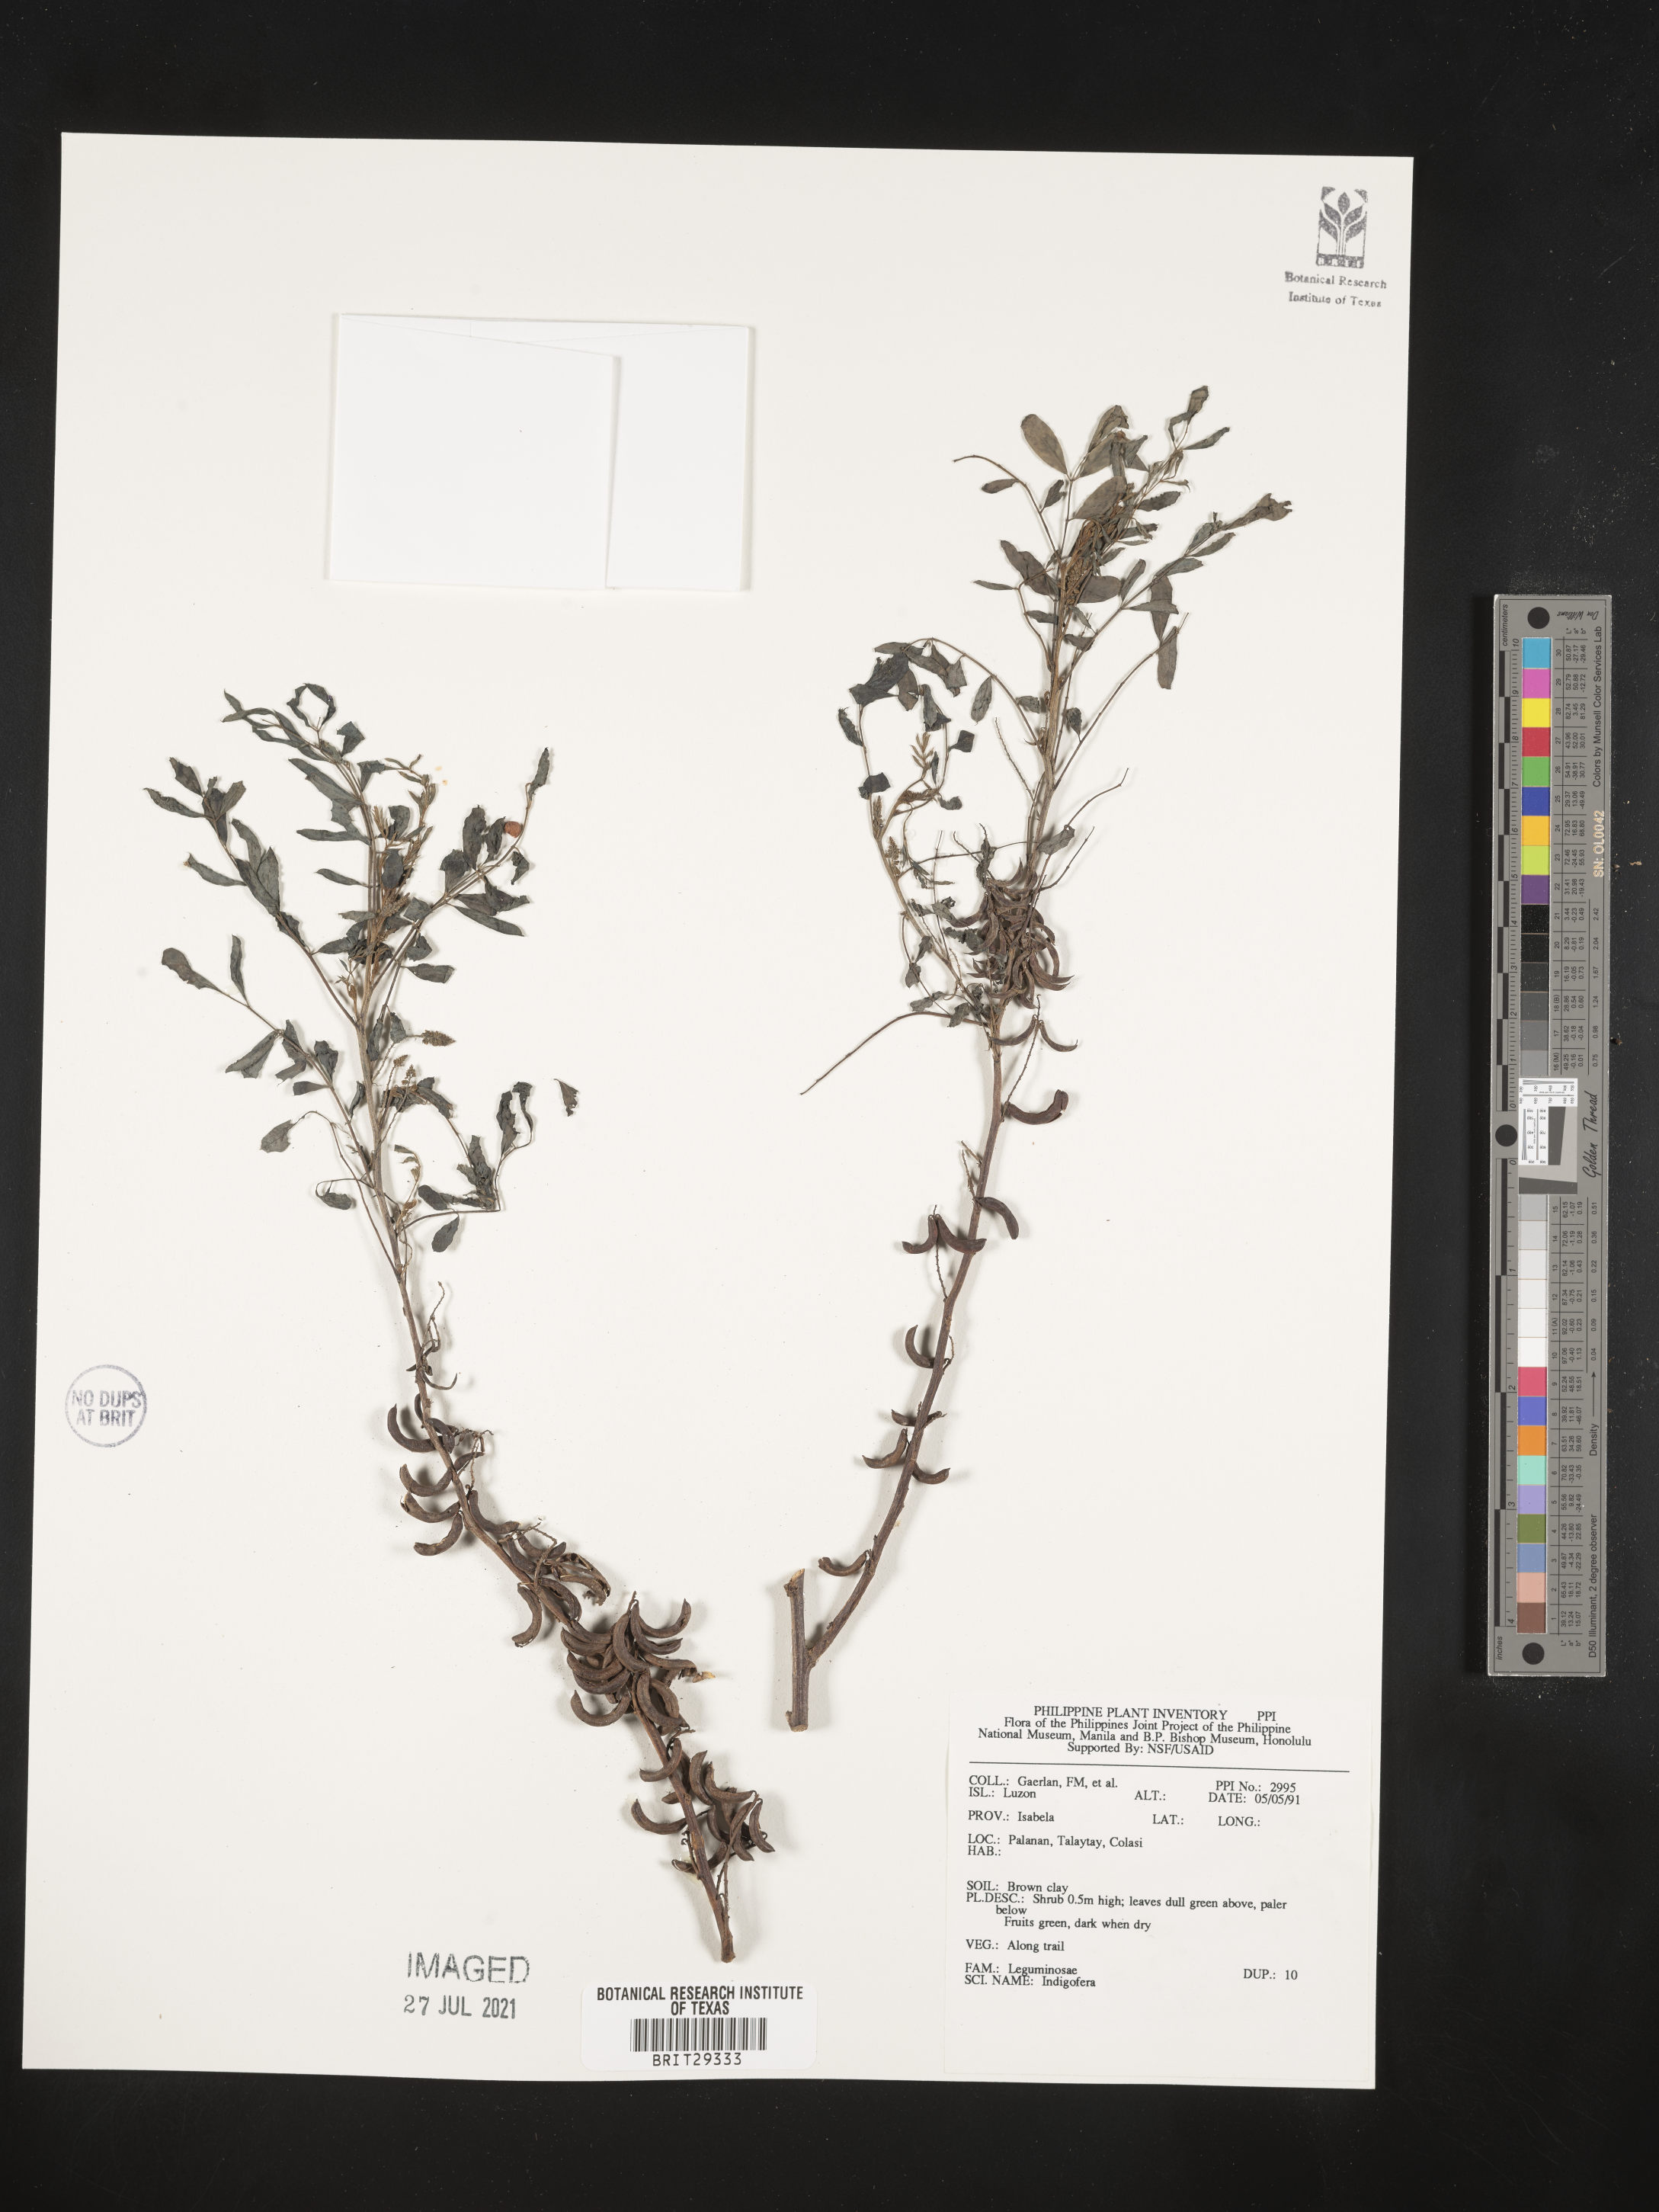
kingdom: Plantae
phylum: Tracheophyta
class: Magnoliopsida
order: Fabales
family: Fabaceae
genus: Indigofera
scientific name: Indigofera
